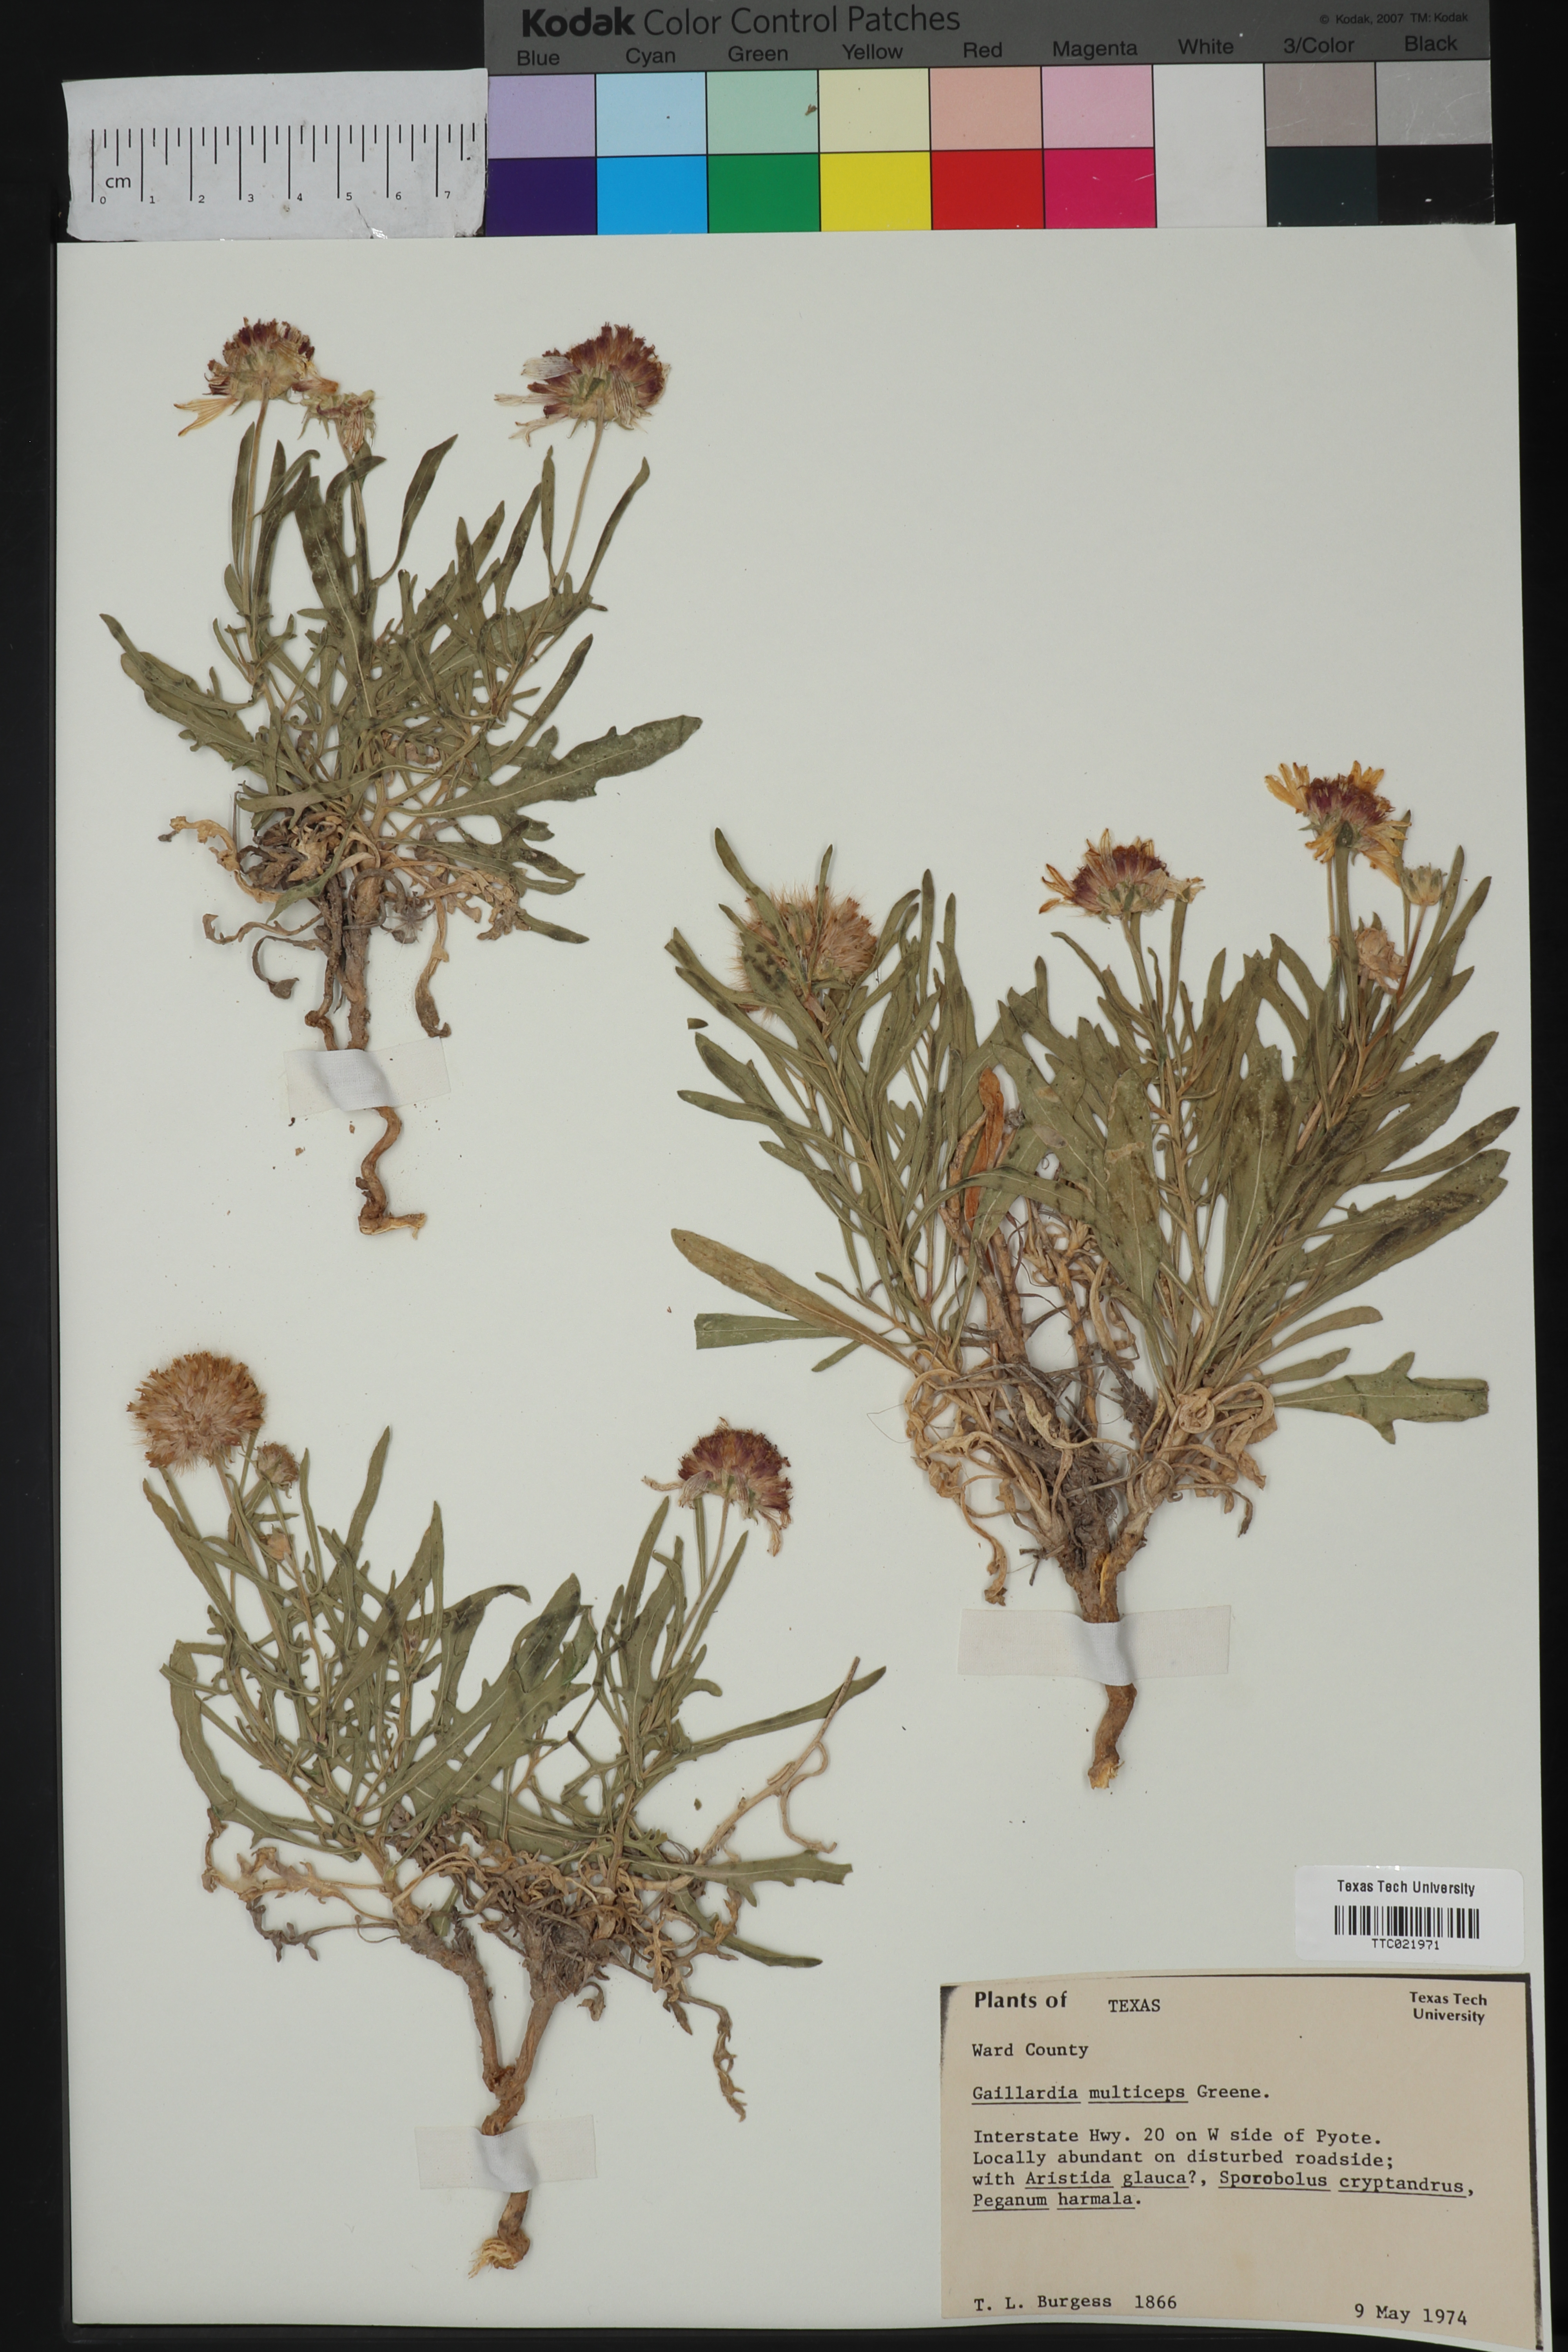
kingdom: Plantae
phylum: Tracheophyta
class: Magnoliopsida
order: Asterales
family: Asteraceae
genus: Gaillardia
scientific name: Gaillardia multiceps
